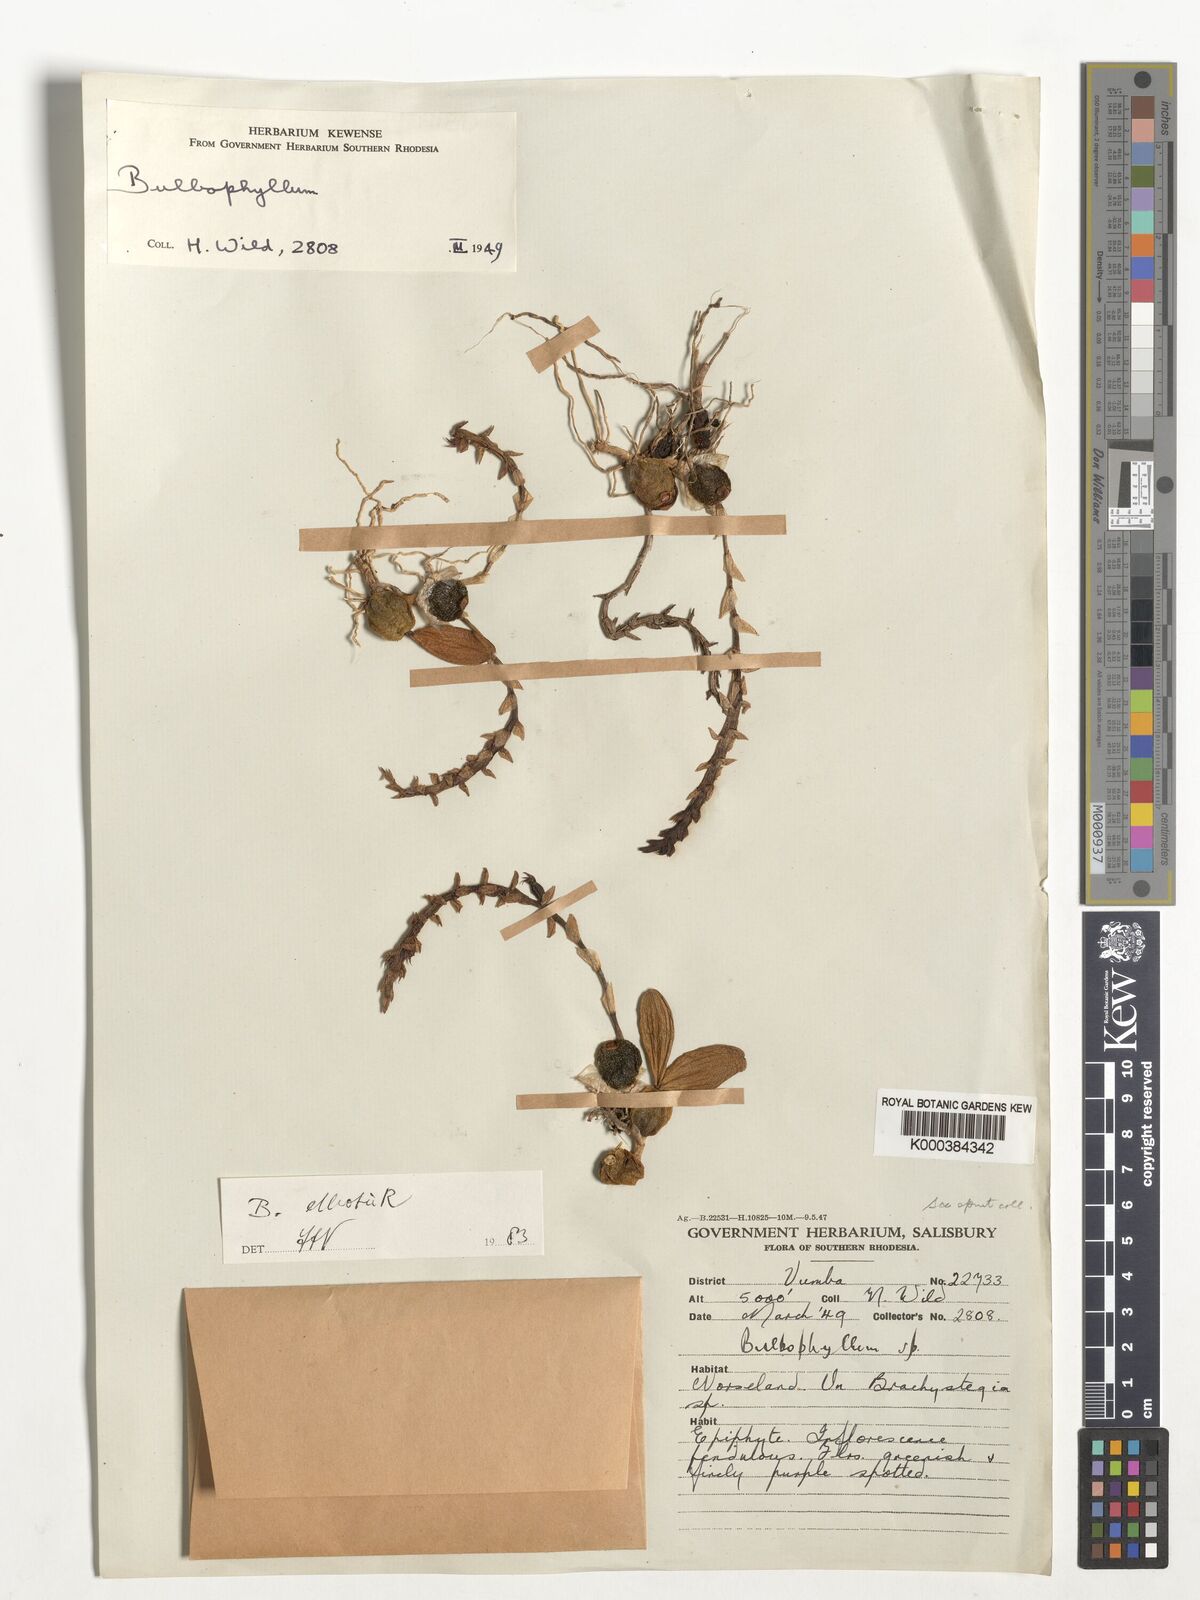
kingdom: Plantae
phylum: Tracheophyta
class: Liliopsida
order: Asparagales
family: Orchidaceae
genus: Bulbophyllum
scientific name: Bulbophyllum elliotii
